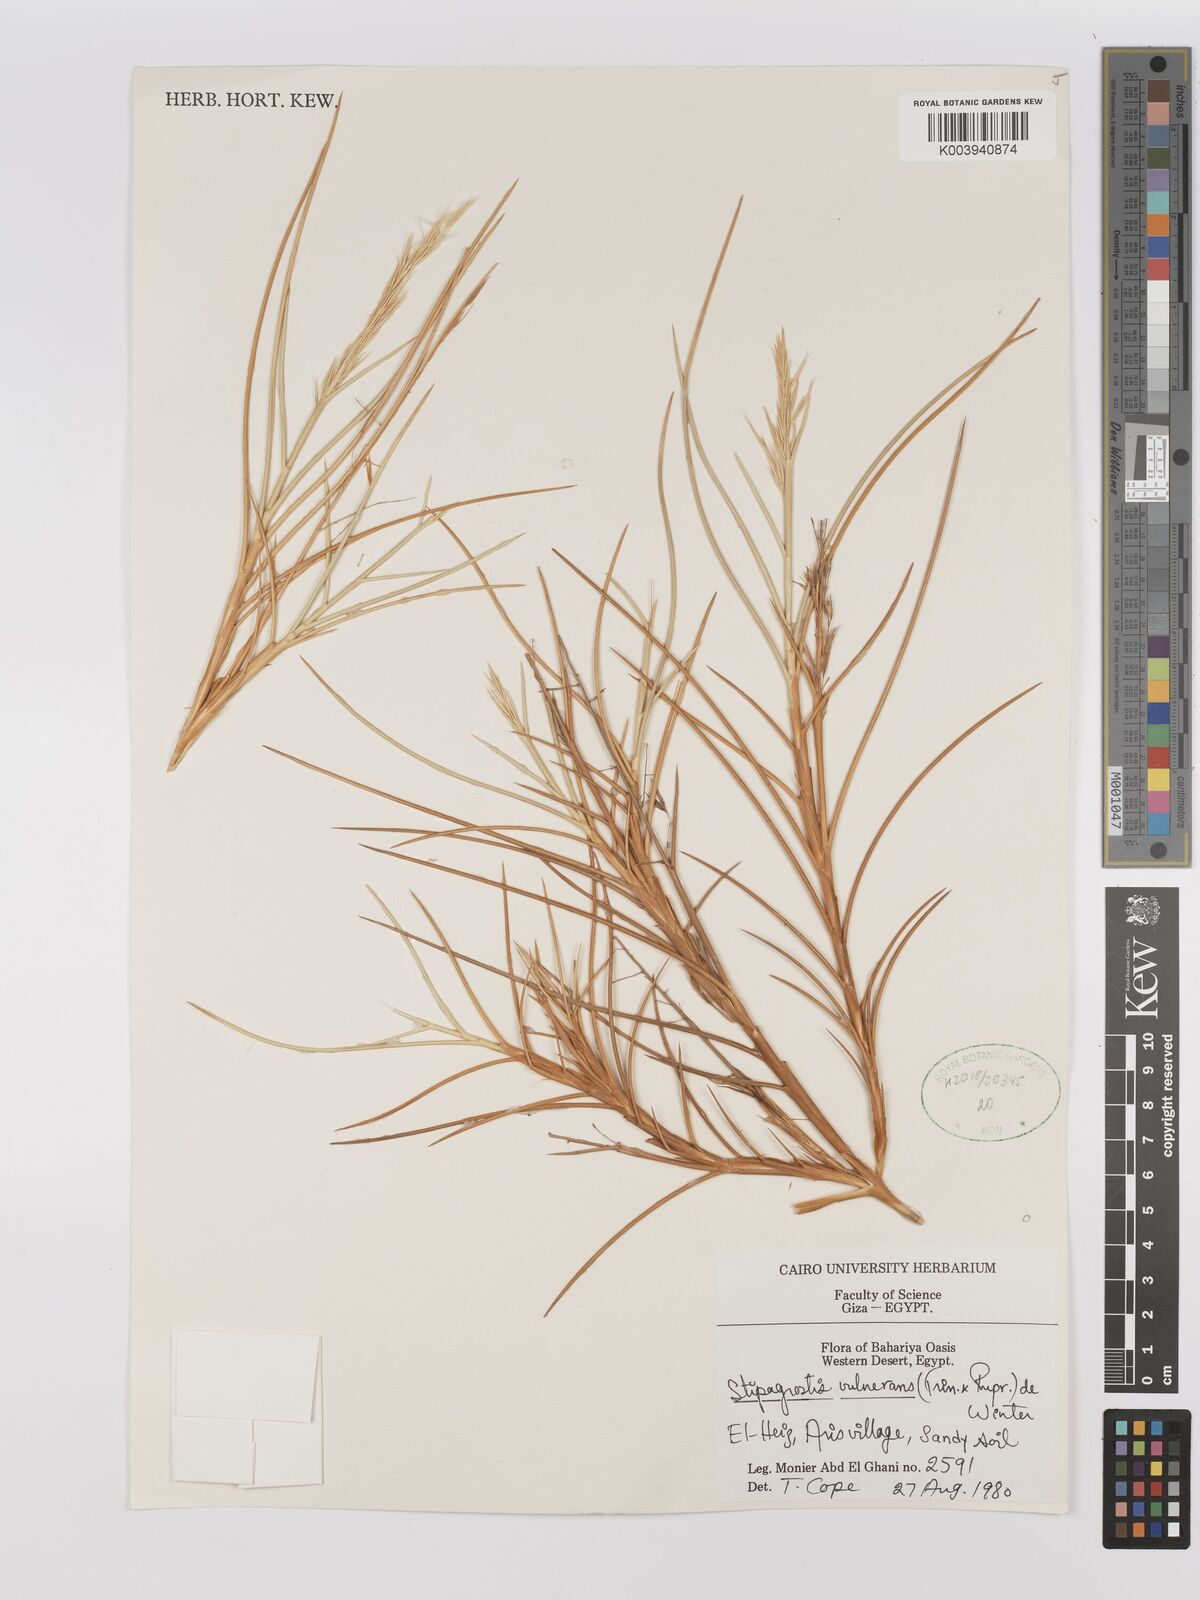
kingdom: Plantae
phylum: Tracheophyta
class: Liliopsida
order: Poales
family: Poaceae
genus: Stipagrostis
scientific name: Stipagrostis vulnerans
